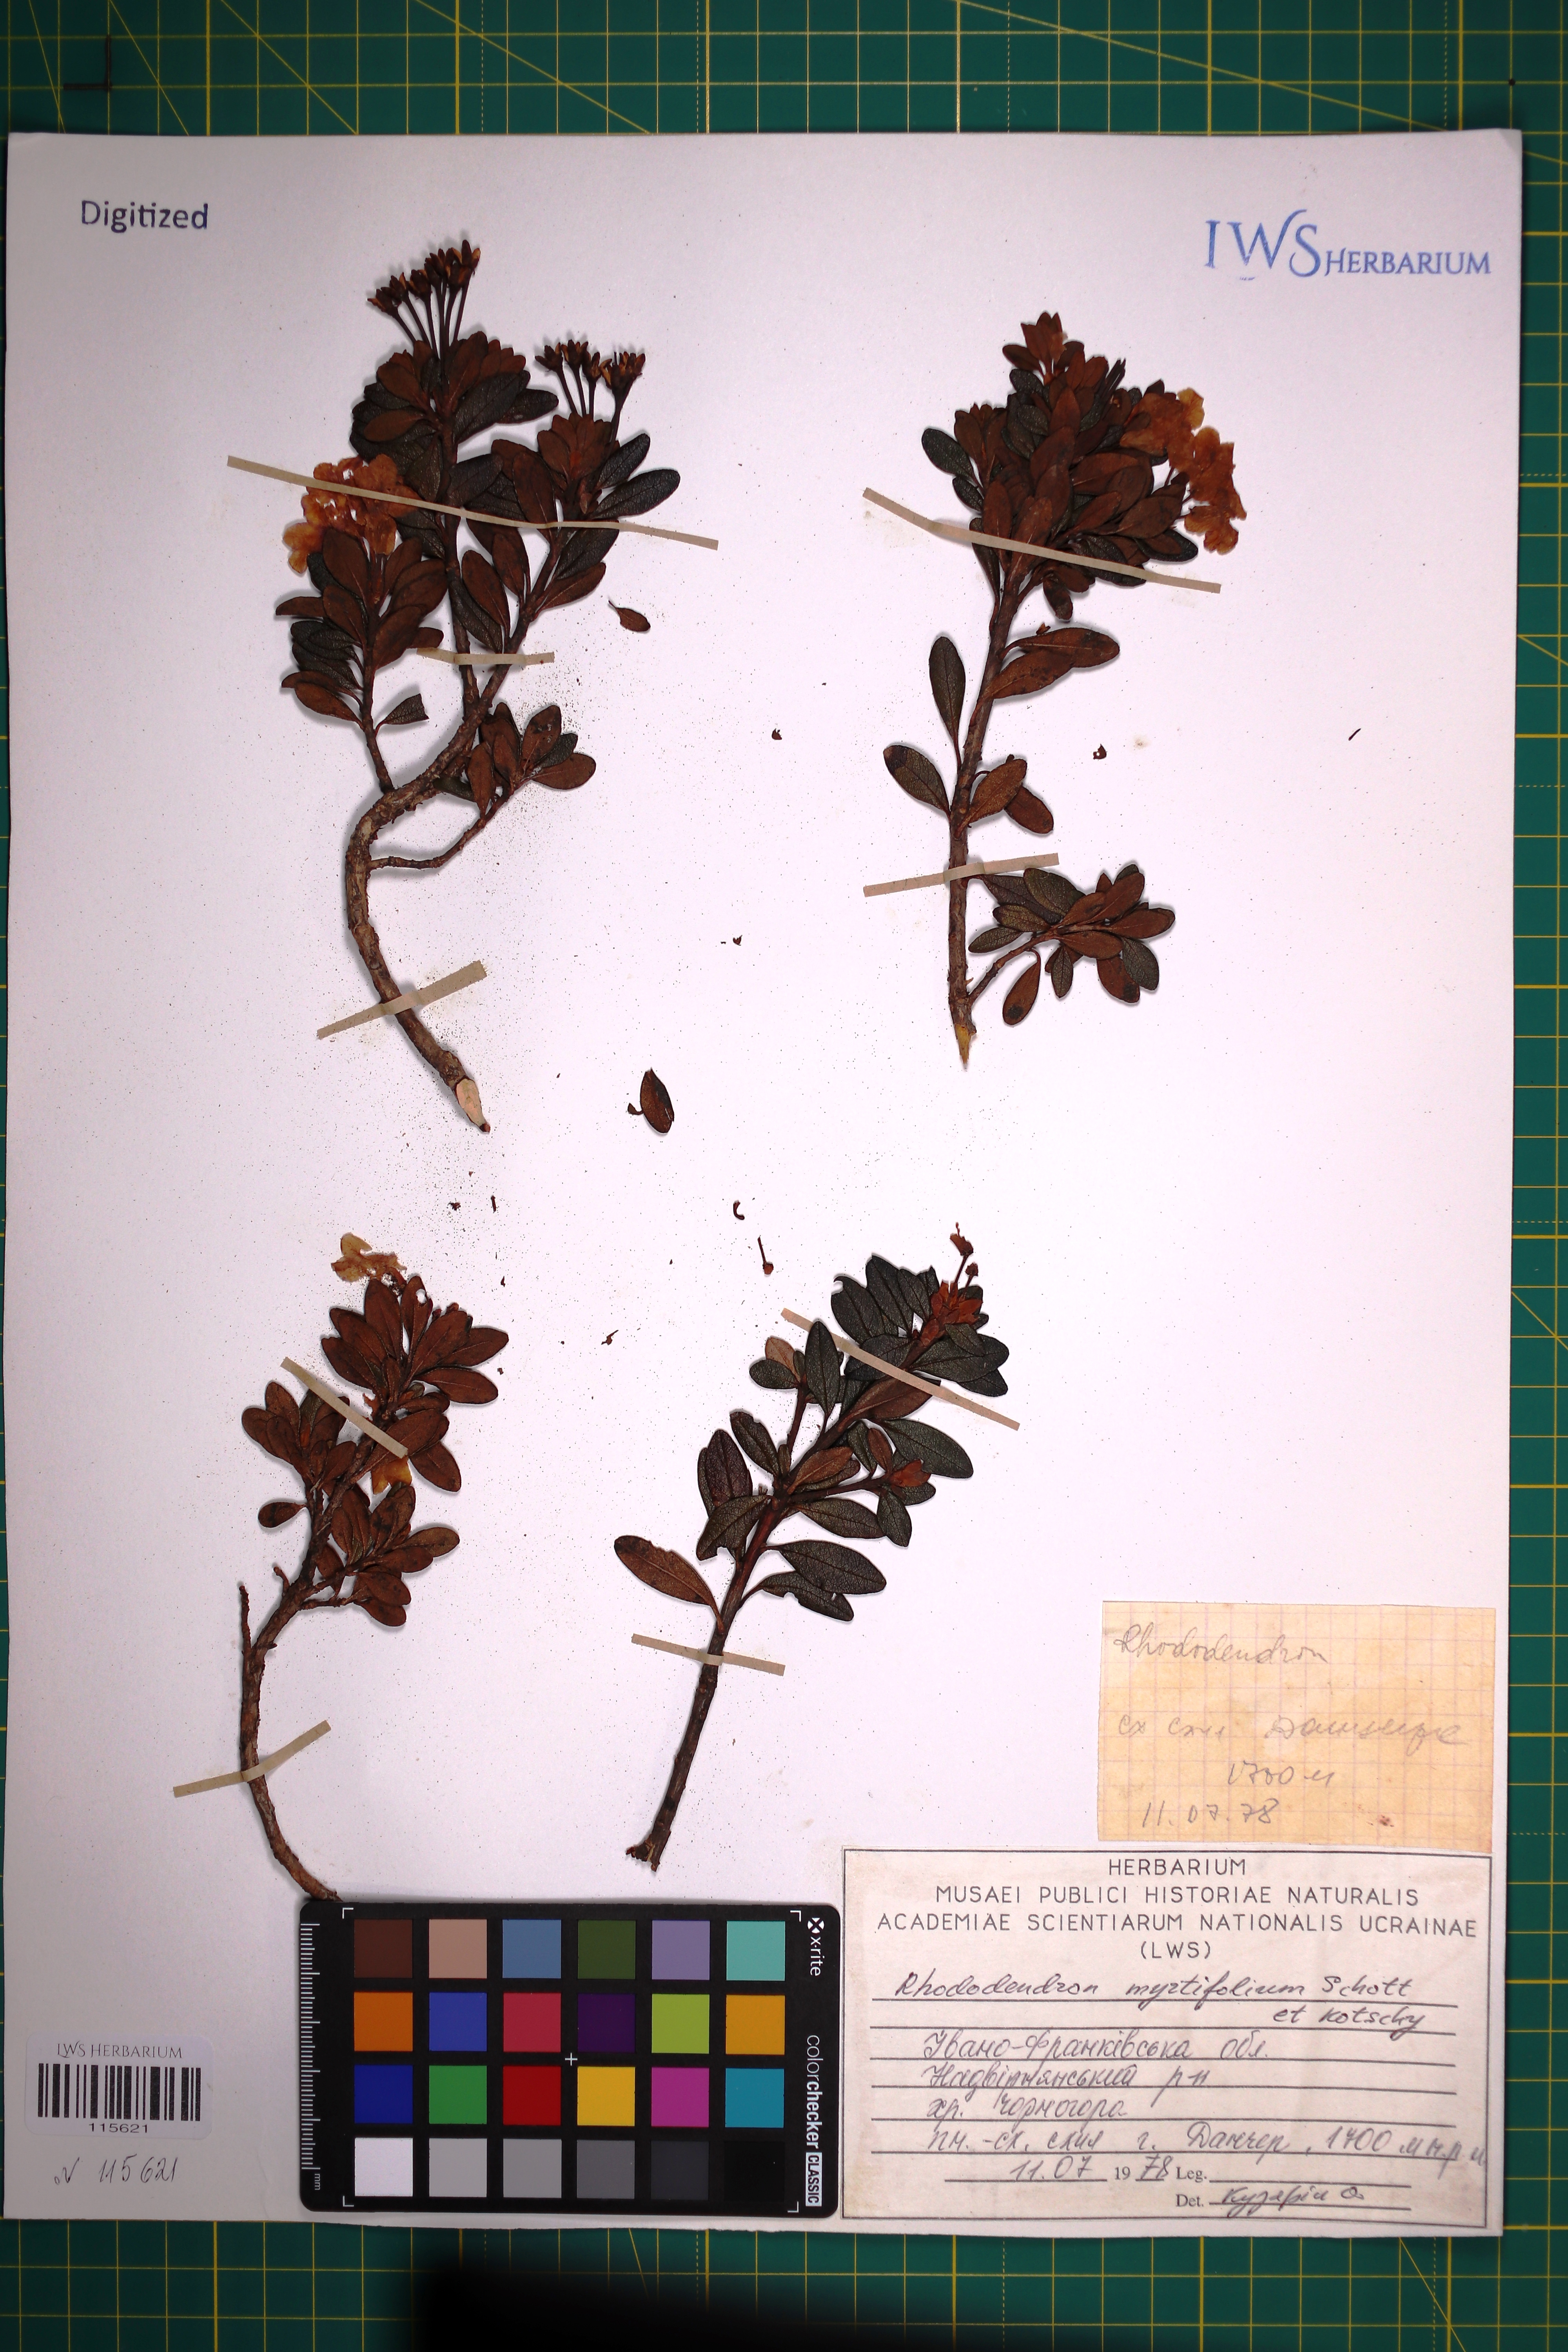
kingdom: Plantae
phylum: Tracheophyta
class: Magnoliopsida
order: Ericales
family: Ericaceae
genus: Rhododendron
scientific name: Rhododendron kotschyi
